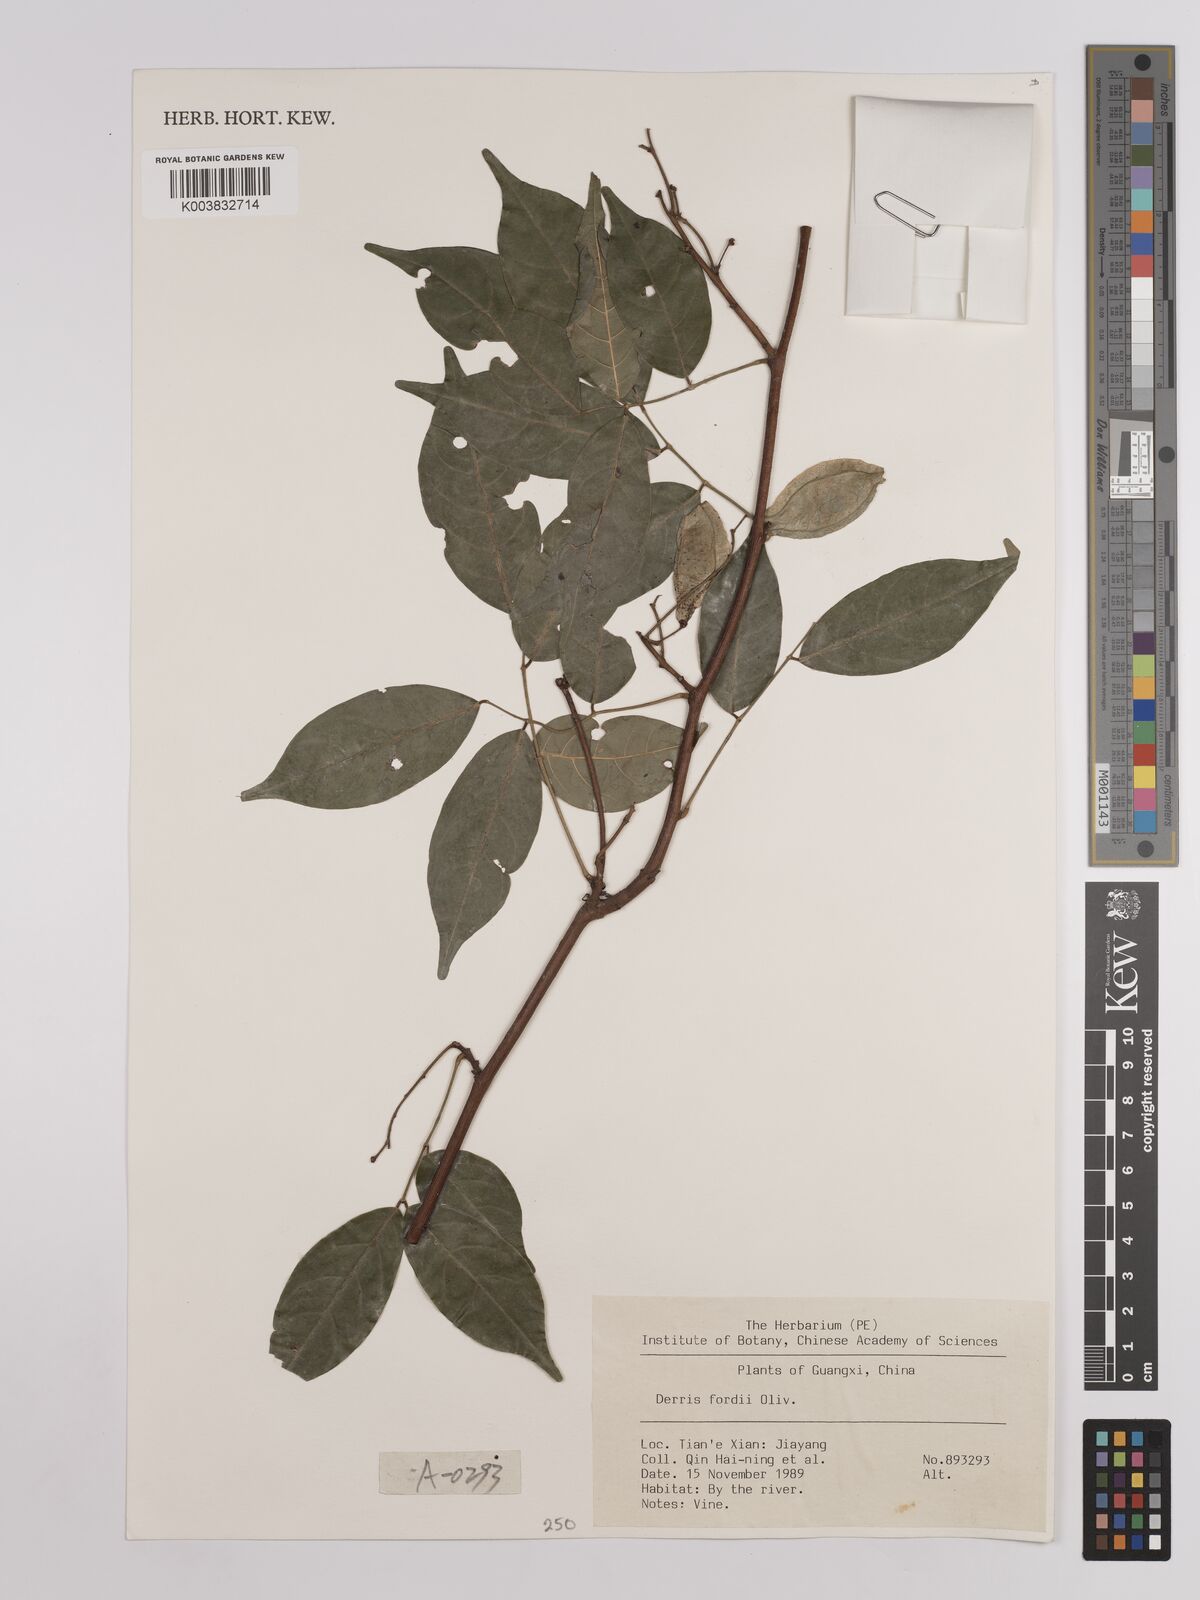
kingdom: Plantae
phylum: Tracheophyta
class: Magnoliopsida
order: Fabales
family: Fabaceae
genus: Derris
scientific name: Derris fordii
